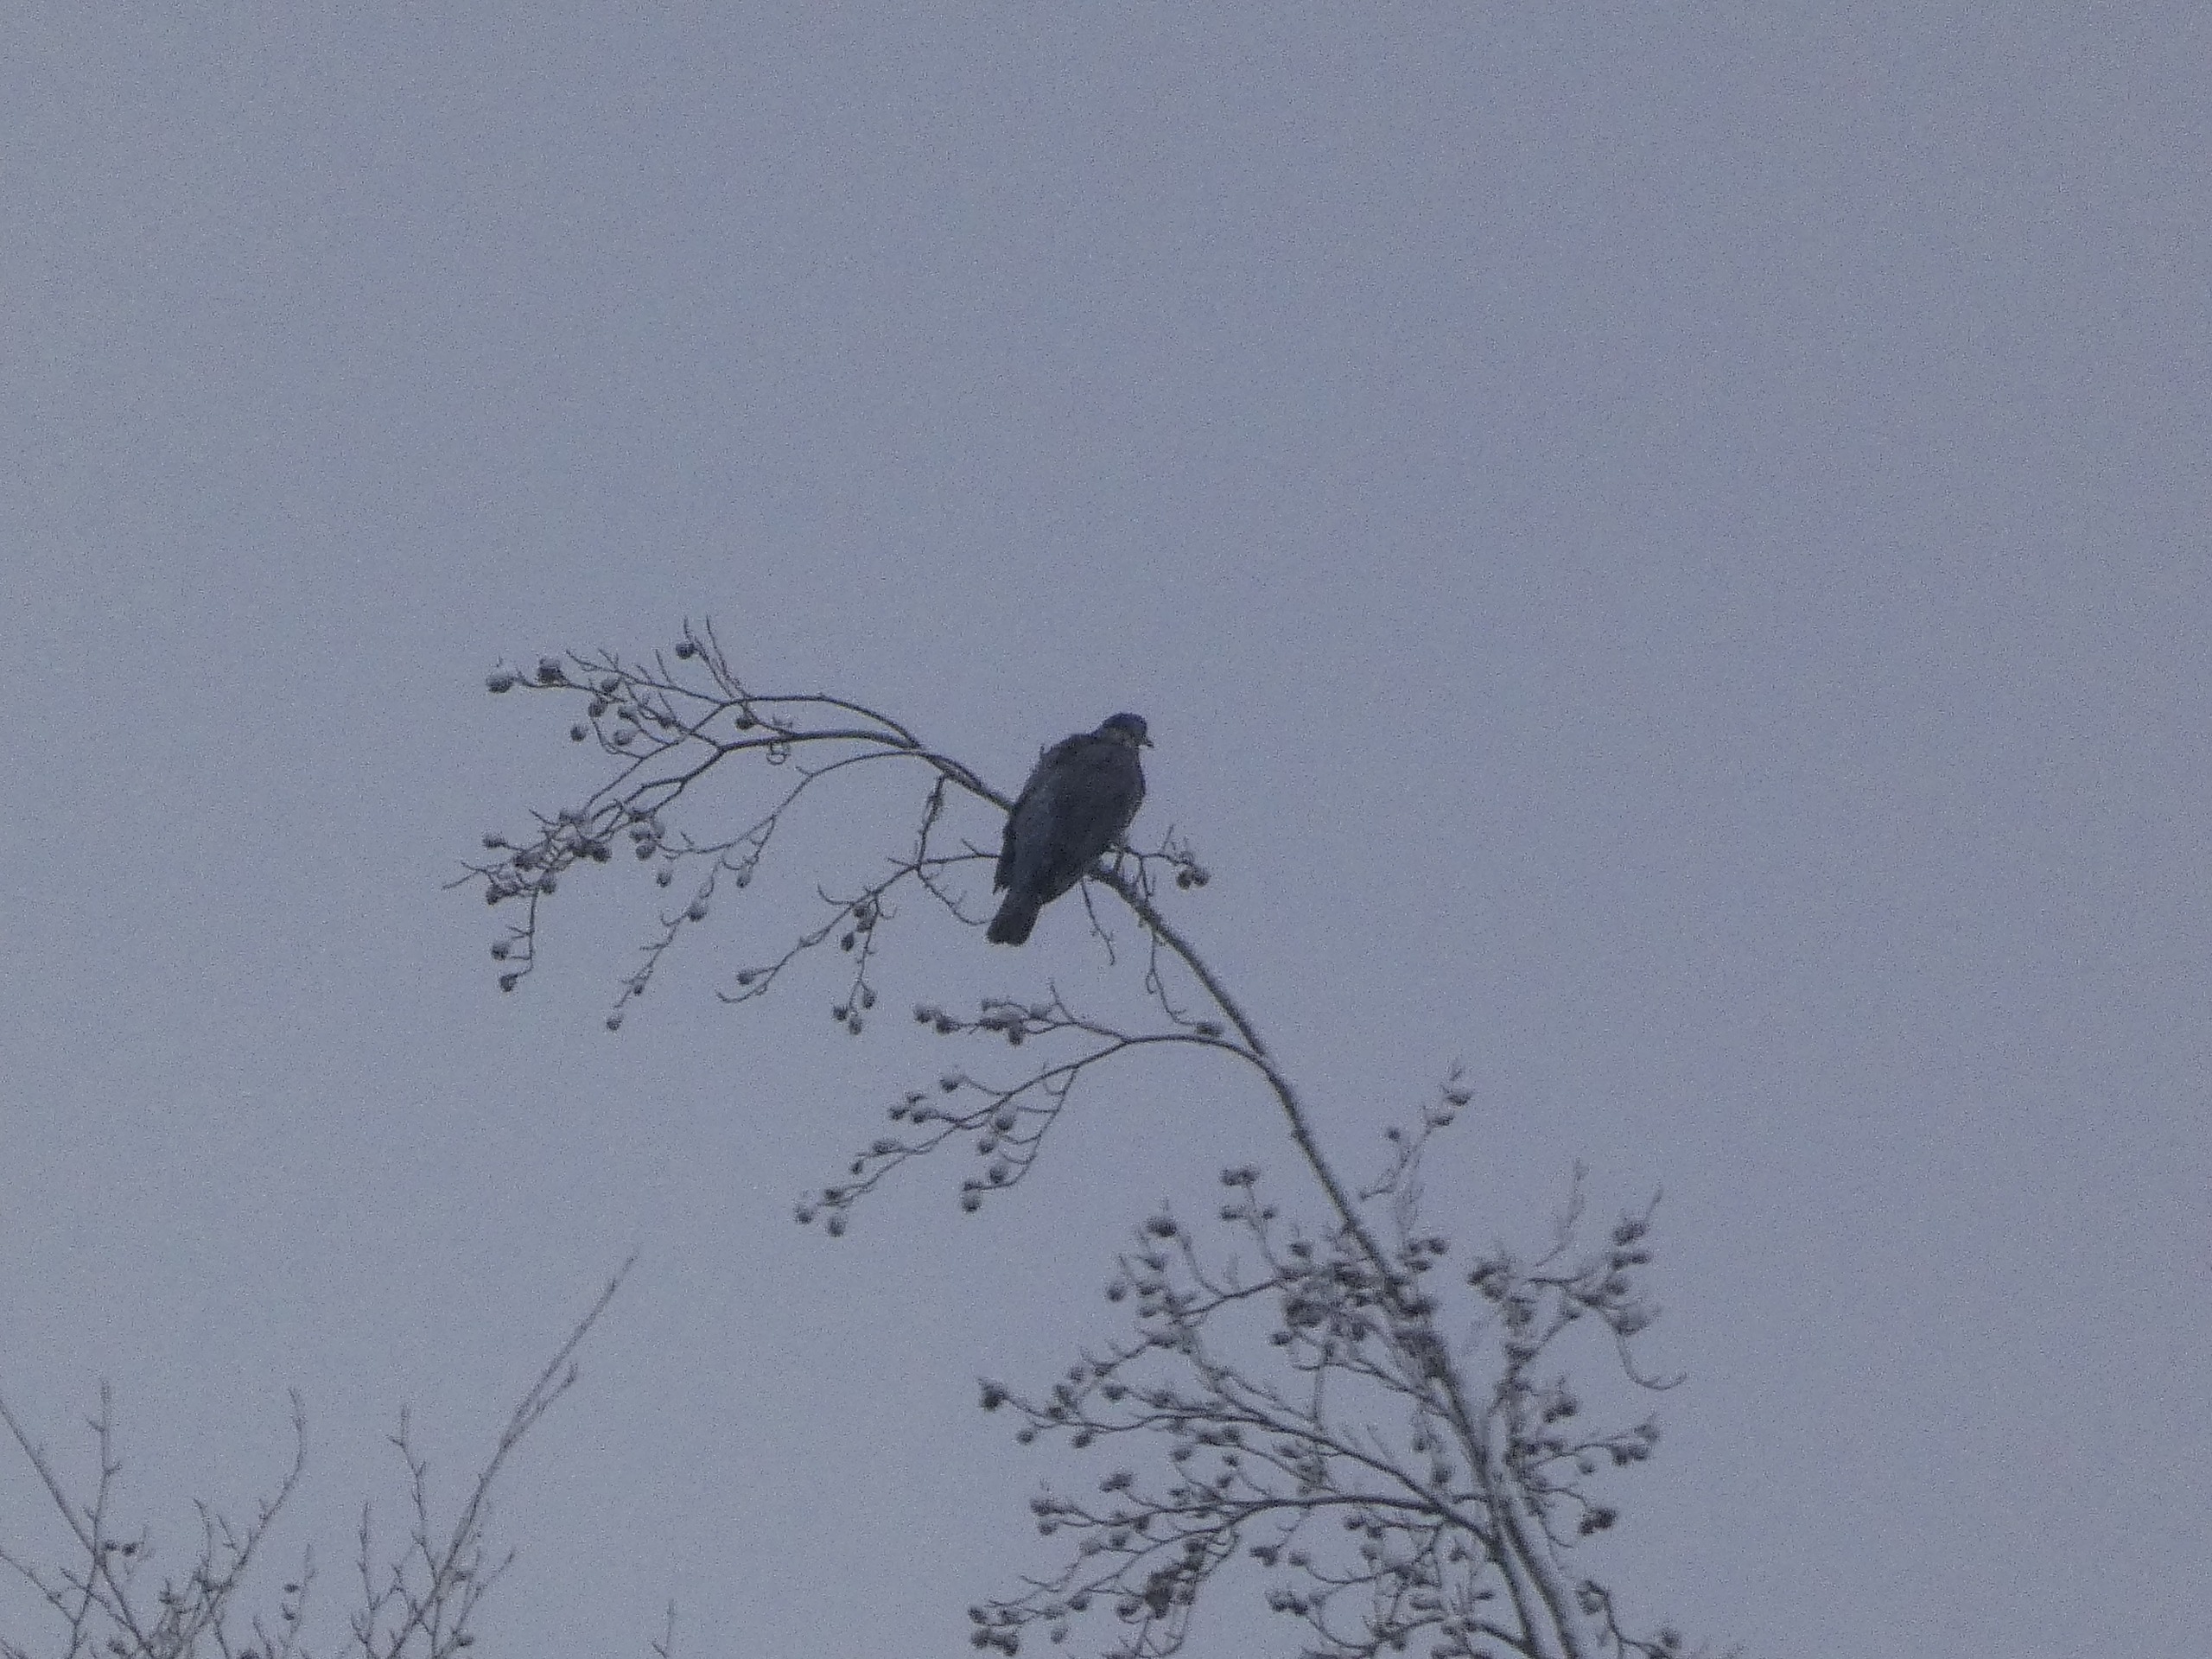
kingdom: Animalia
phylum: Chordata
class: Aves
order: Columbiformes
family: Columbidae
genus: Columba
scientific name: Columba palumbus
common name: Ringdue
